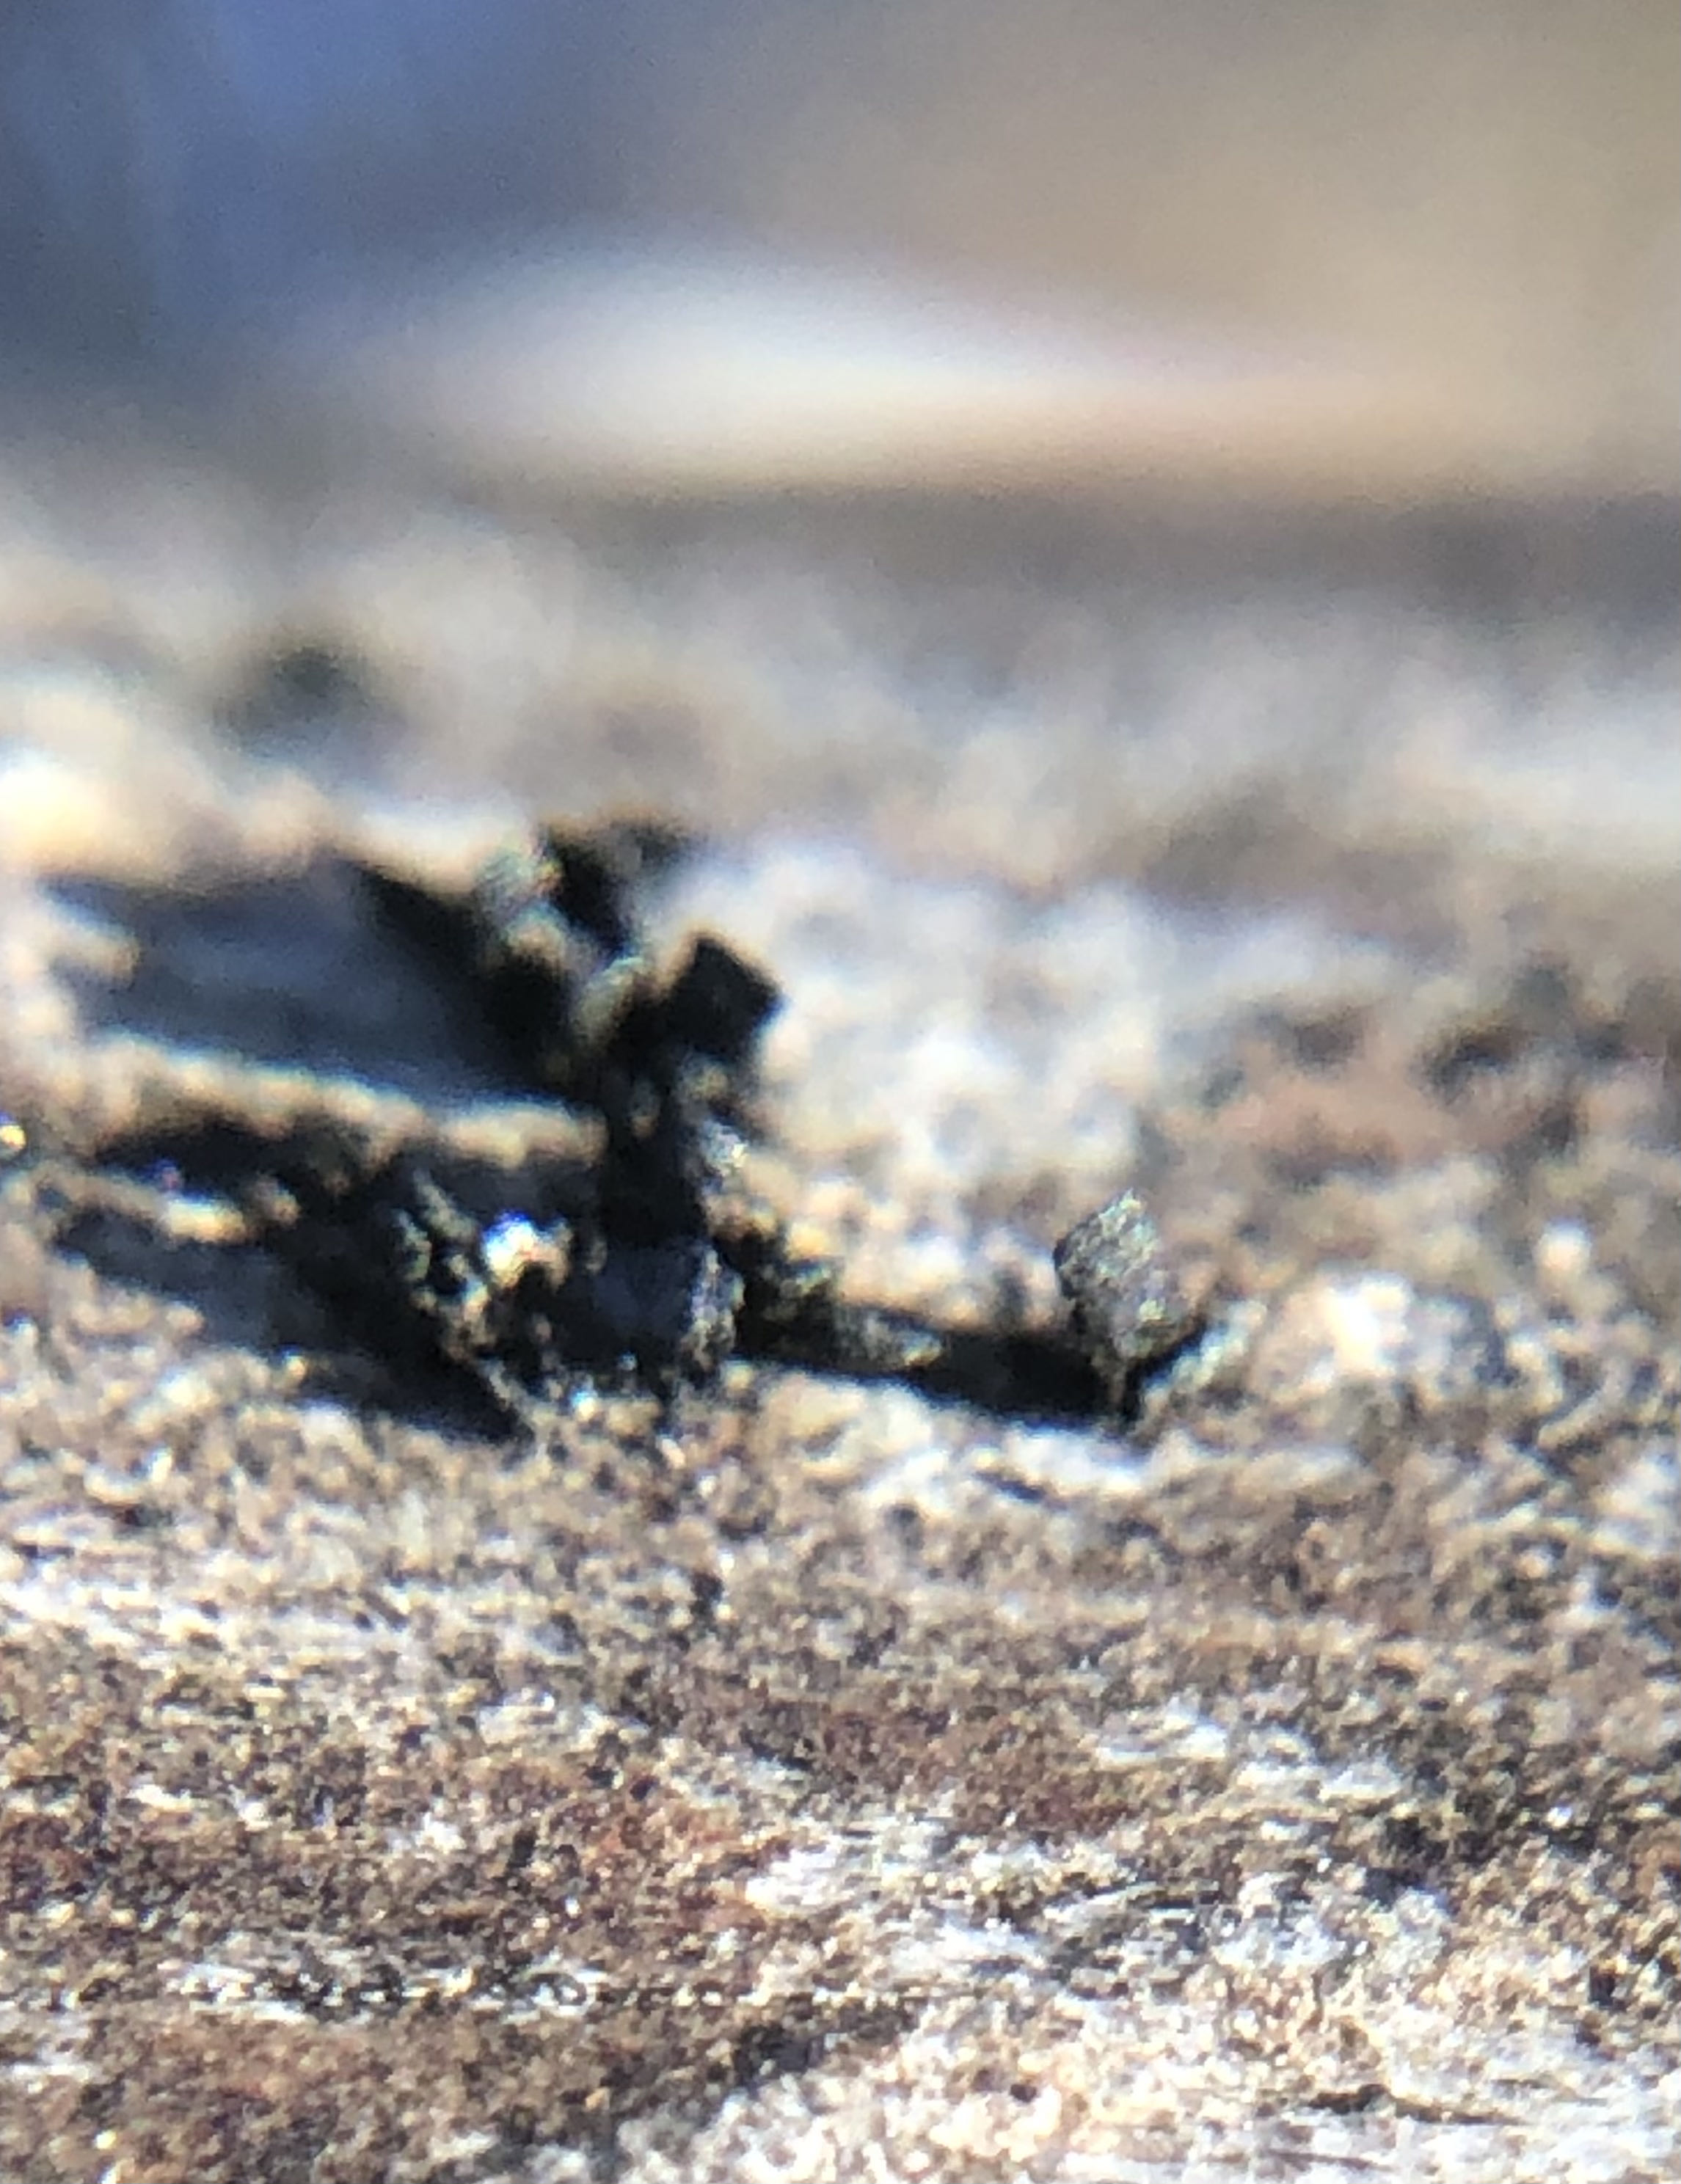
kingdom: Fungi
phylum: Ascomycota
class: Eurotiomycetes
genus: Glyphium
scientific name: Glyphium elatum
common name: kuløkse
